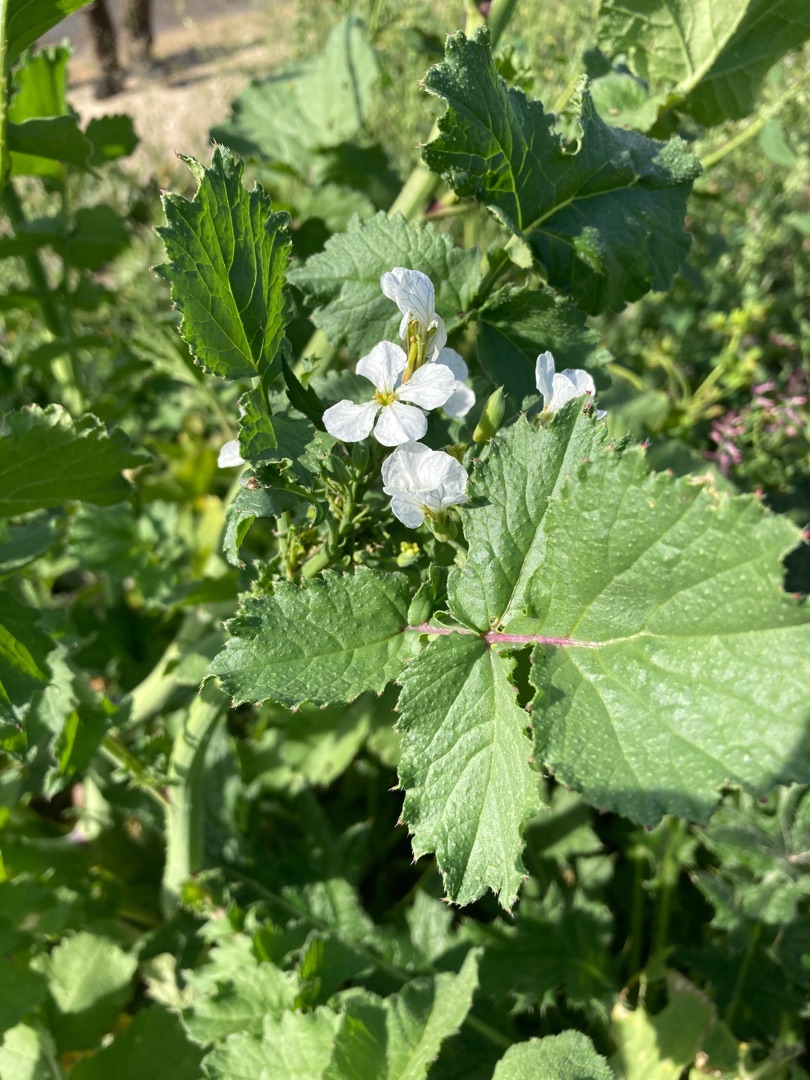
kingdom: Plantae
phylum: Tracheophyta
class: Magnoliopsida
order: Brassicales
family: Brassicaceae
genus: Raphanus
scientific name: Raphanus sativus
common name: Radise
